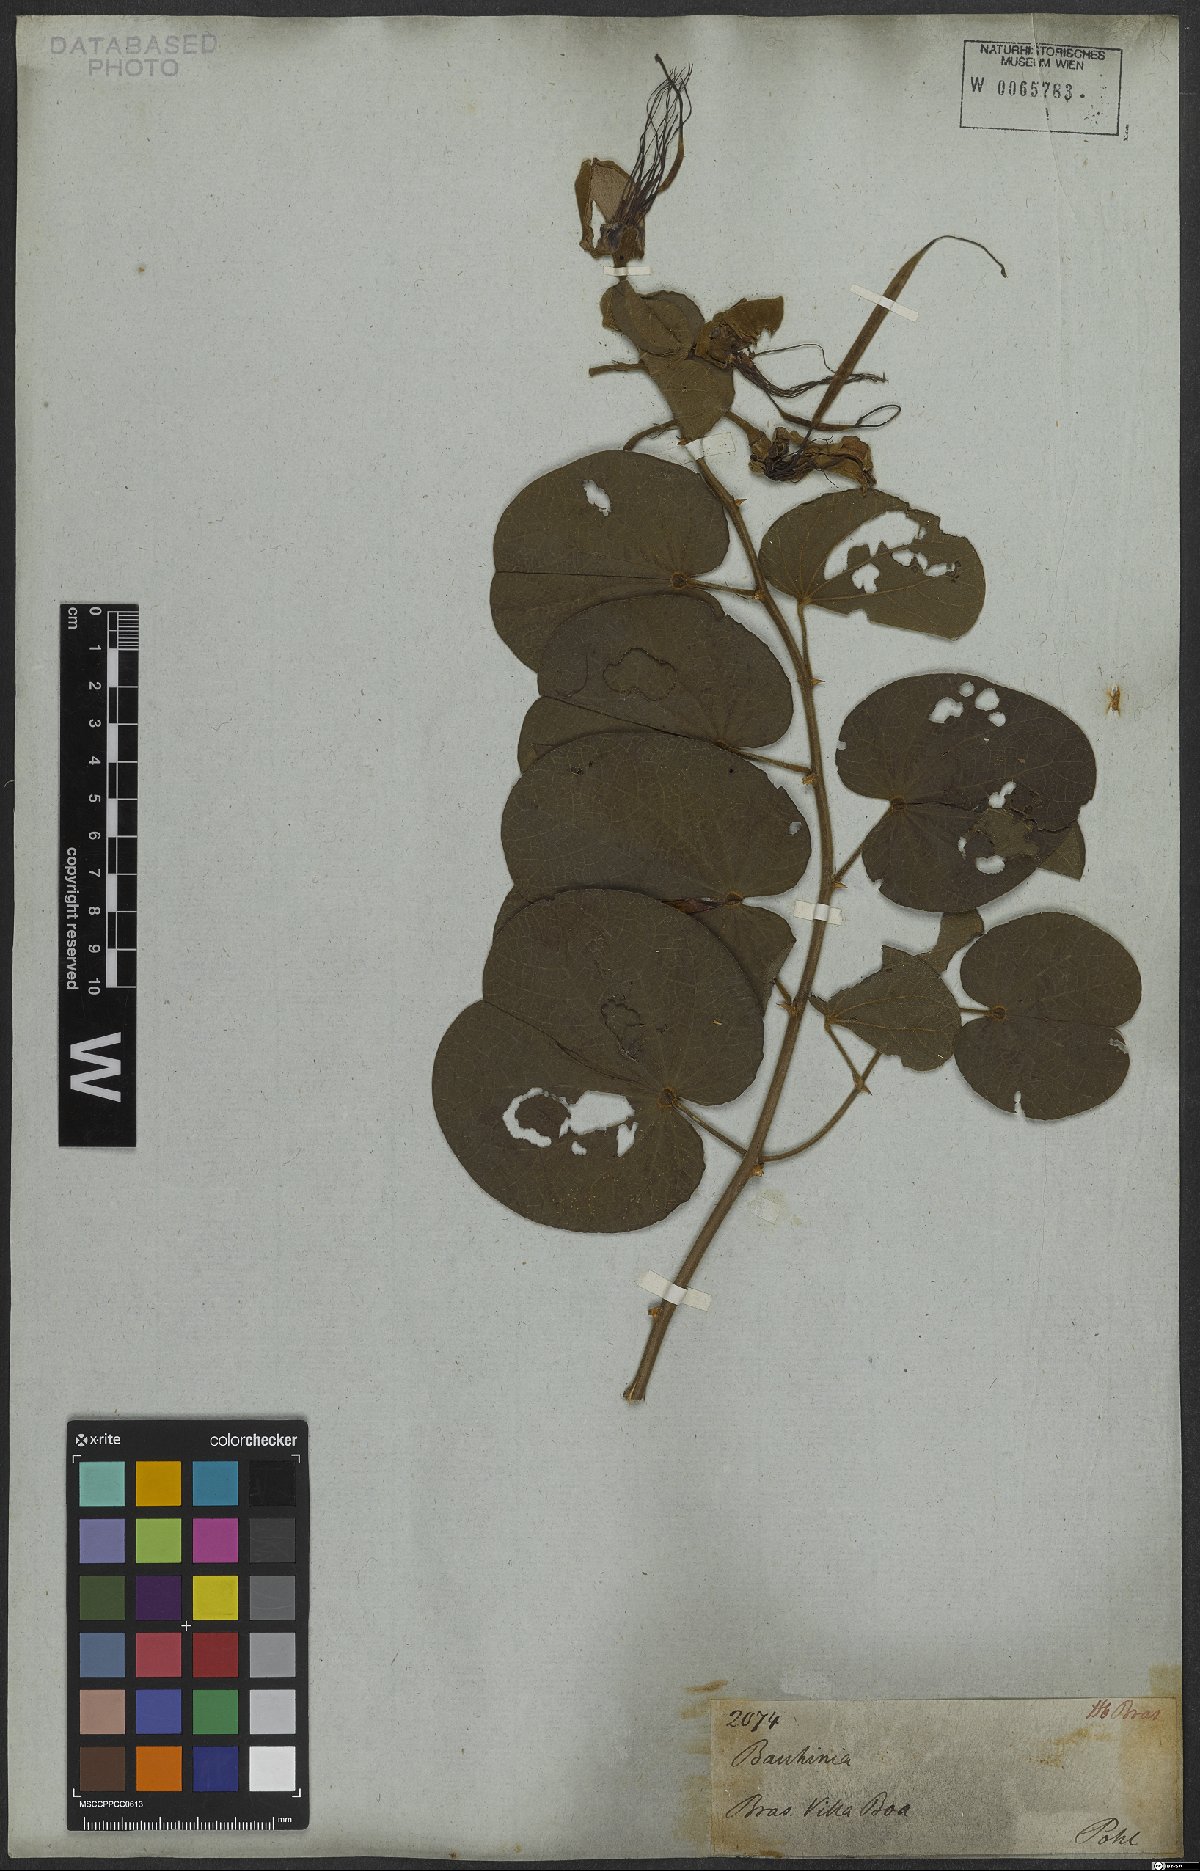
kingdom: Plantae
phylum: Tracheophyta
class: Magnoliopsida
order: Fabales
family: Fabaceae
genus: Bauhinia
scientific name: Bauhinia aculeata
